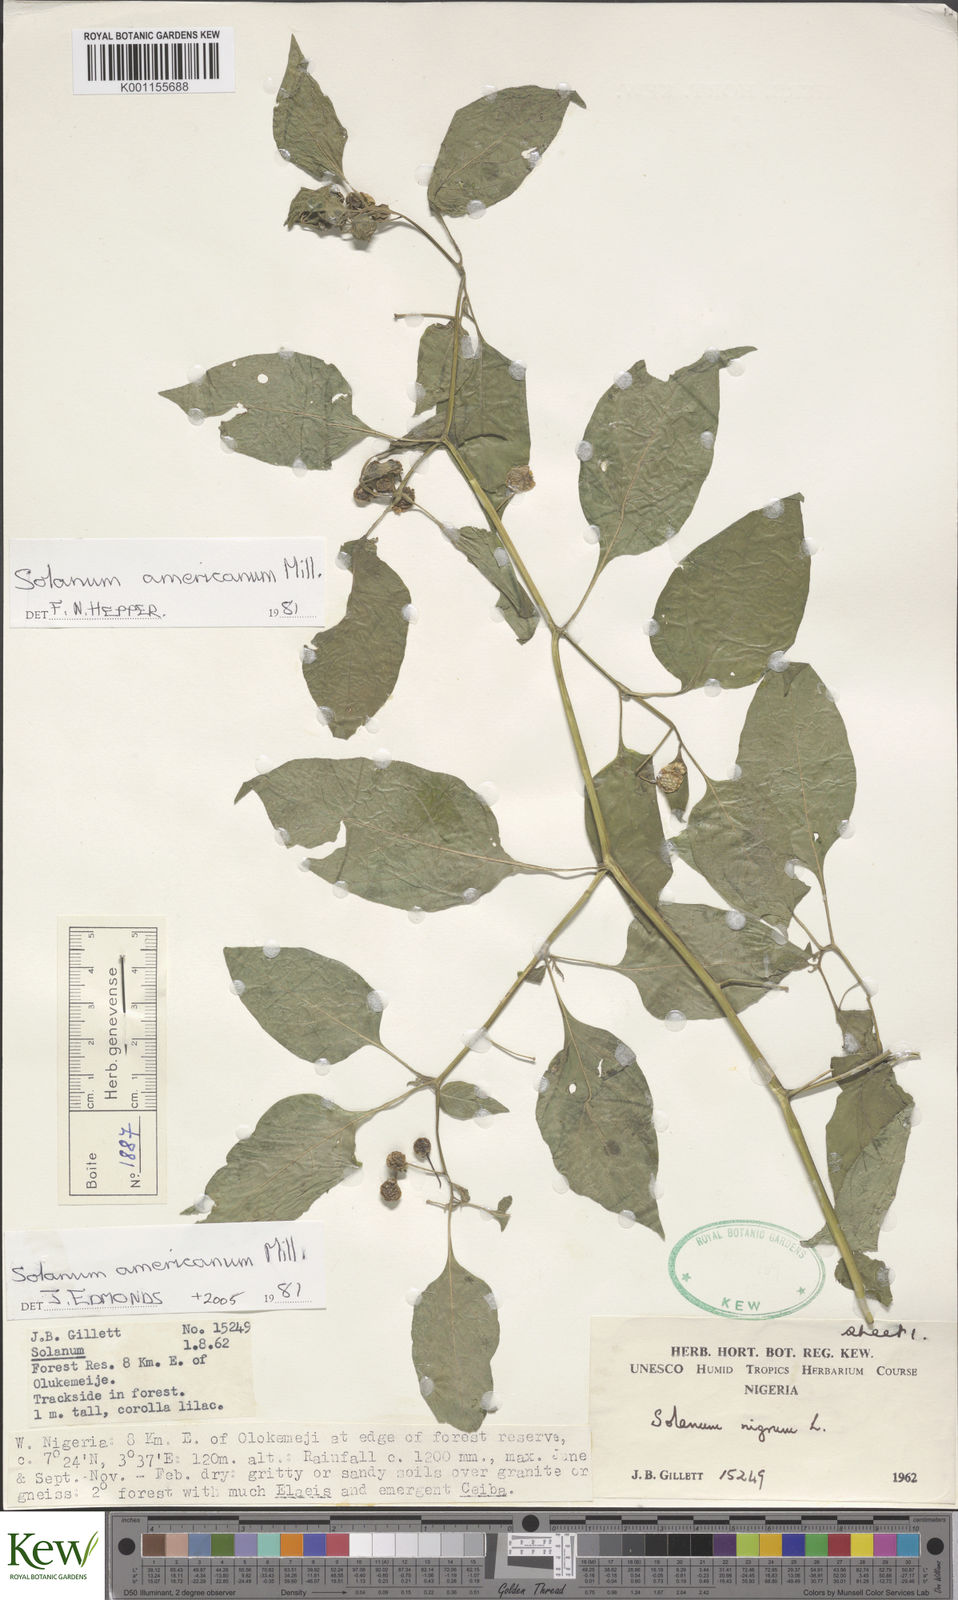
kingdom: Plantae
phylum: Tracheophyta
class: Magnoliopsida
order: Solanales
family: Solanaceae
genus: Solanum
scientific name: Solanum scabrum
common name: Garden-huckleberry
